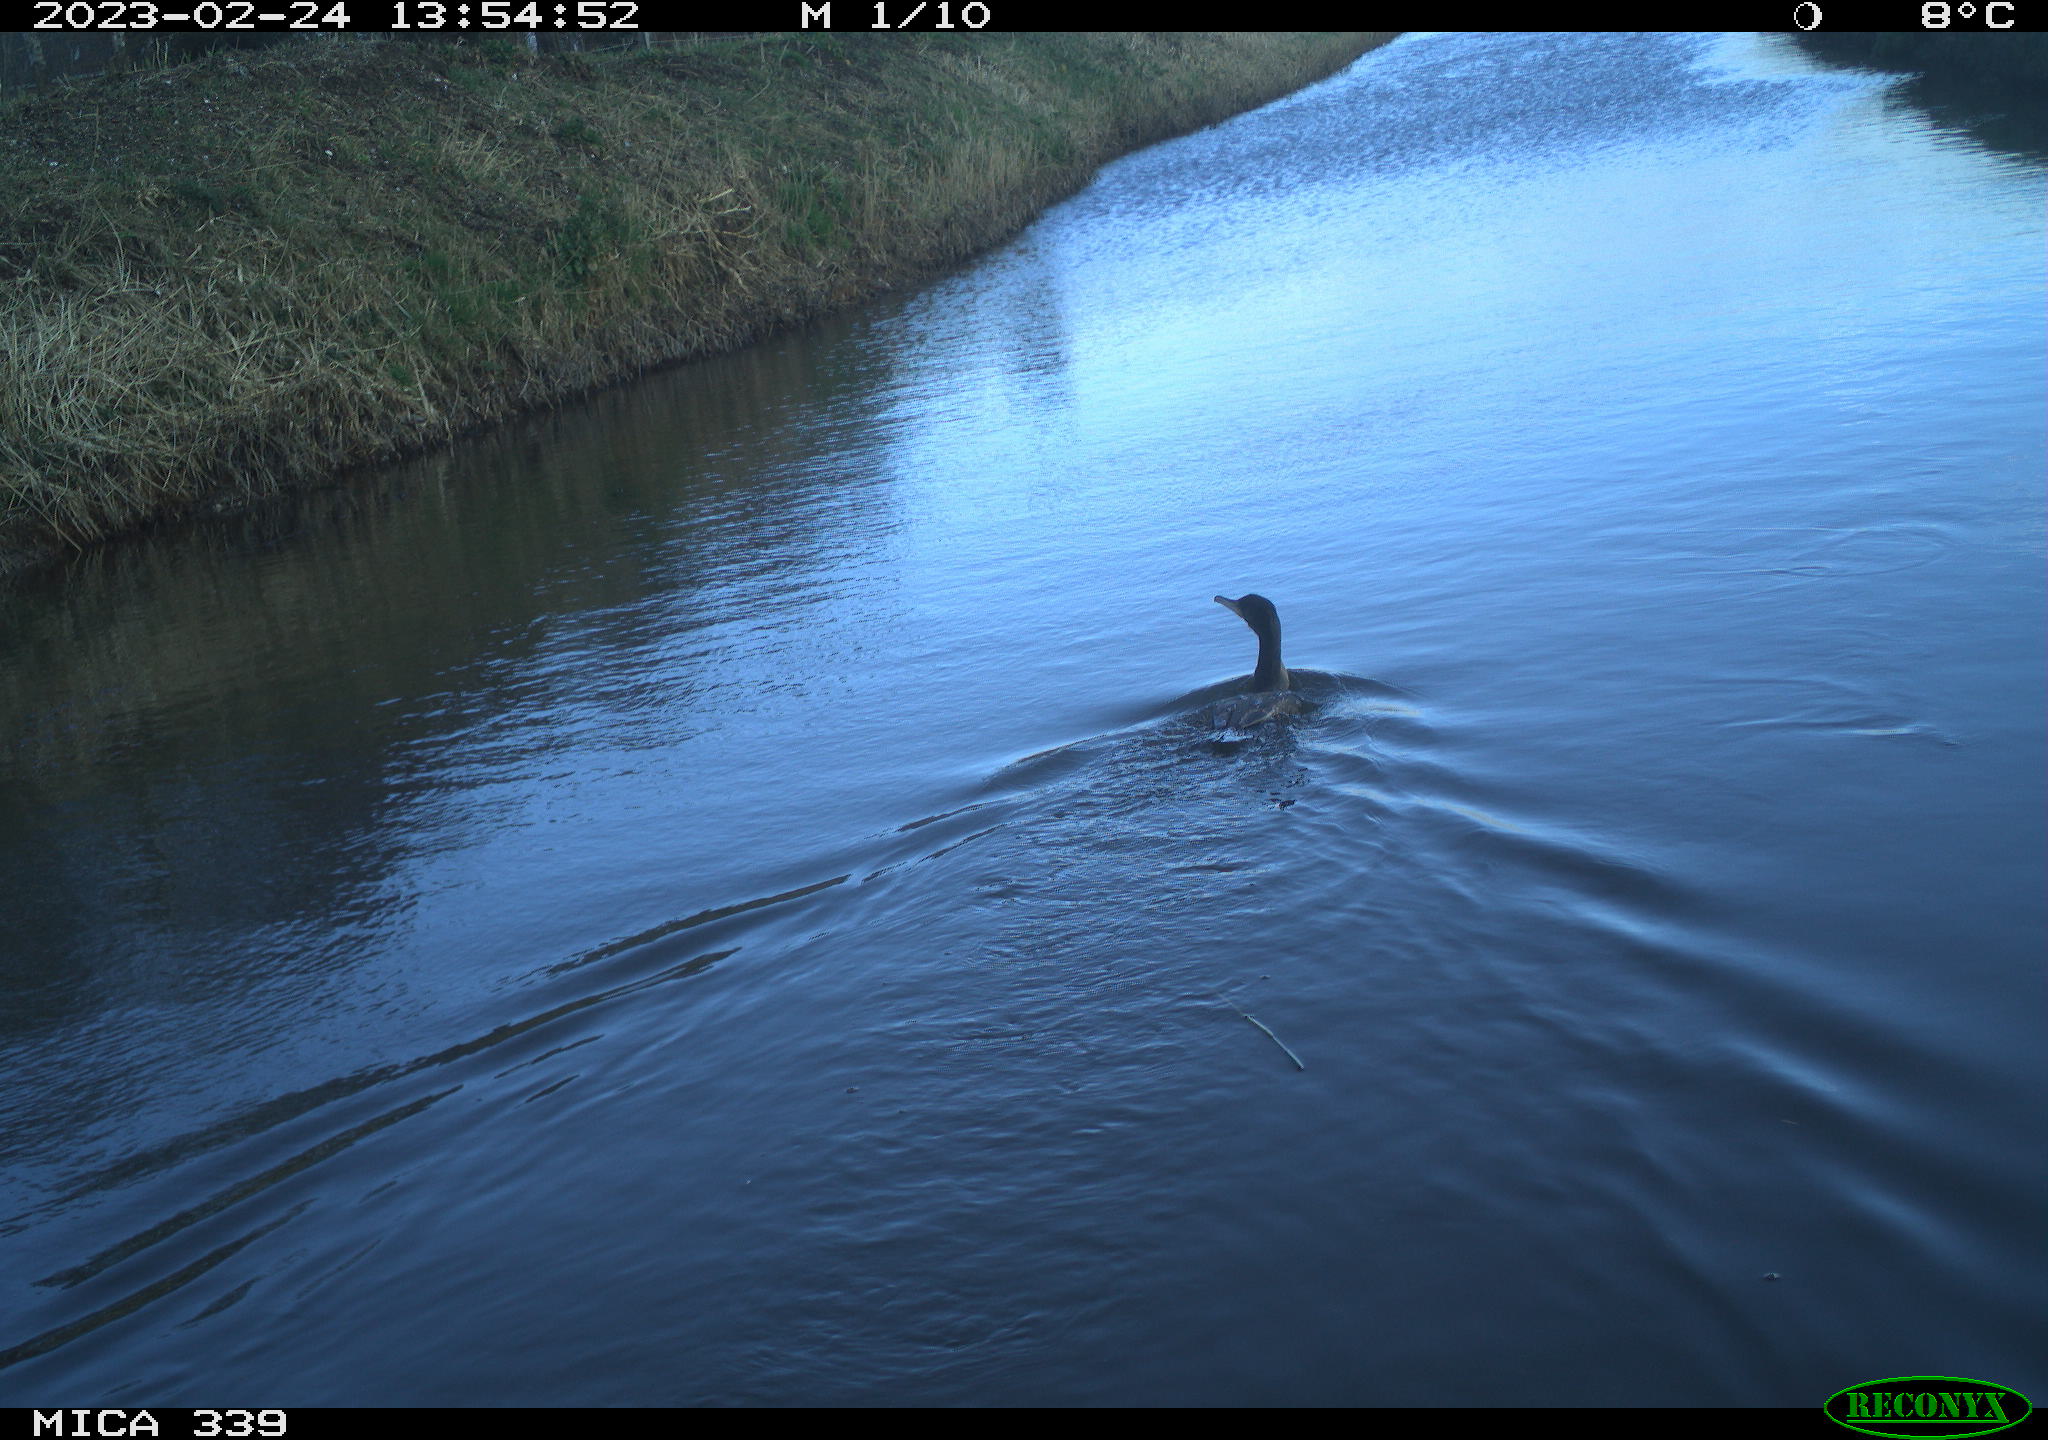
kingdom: Animalia
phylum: Chordata
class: Aves
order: Suliformes
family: Phalacrocoracidae
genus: Phalacrocorax
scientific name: Phalacrocorax carbo
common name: Great cormorant
